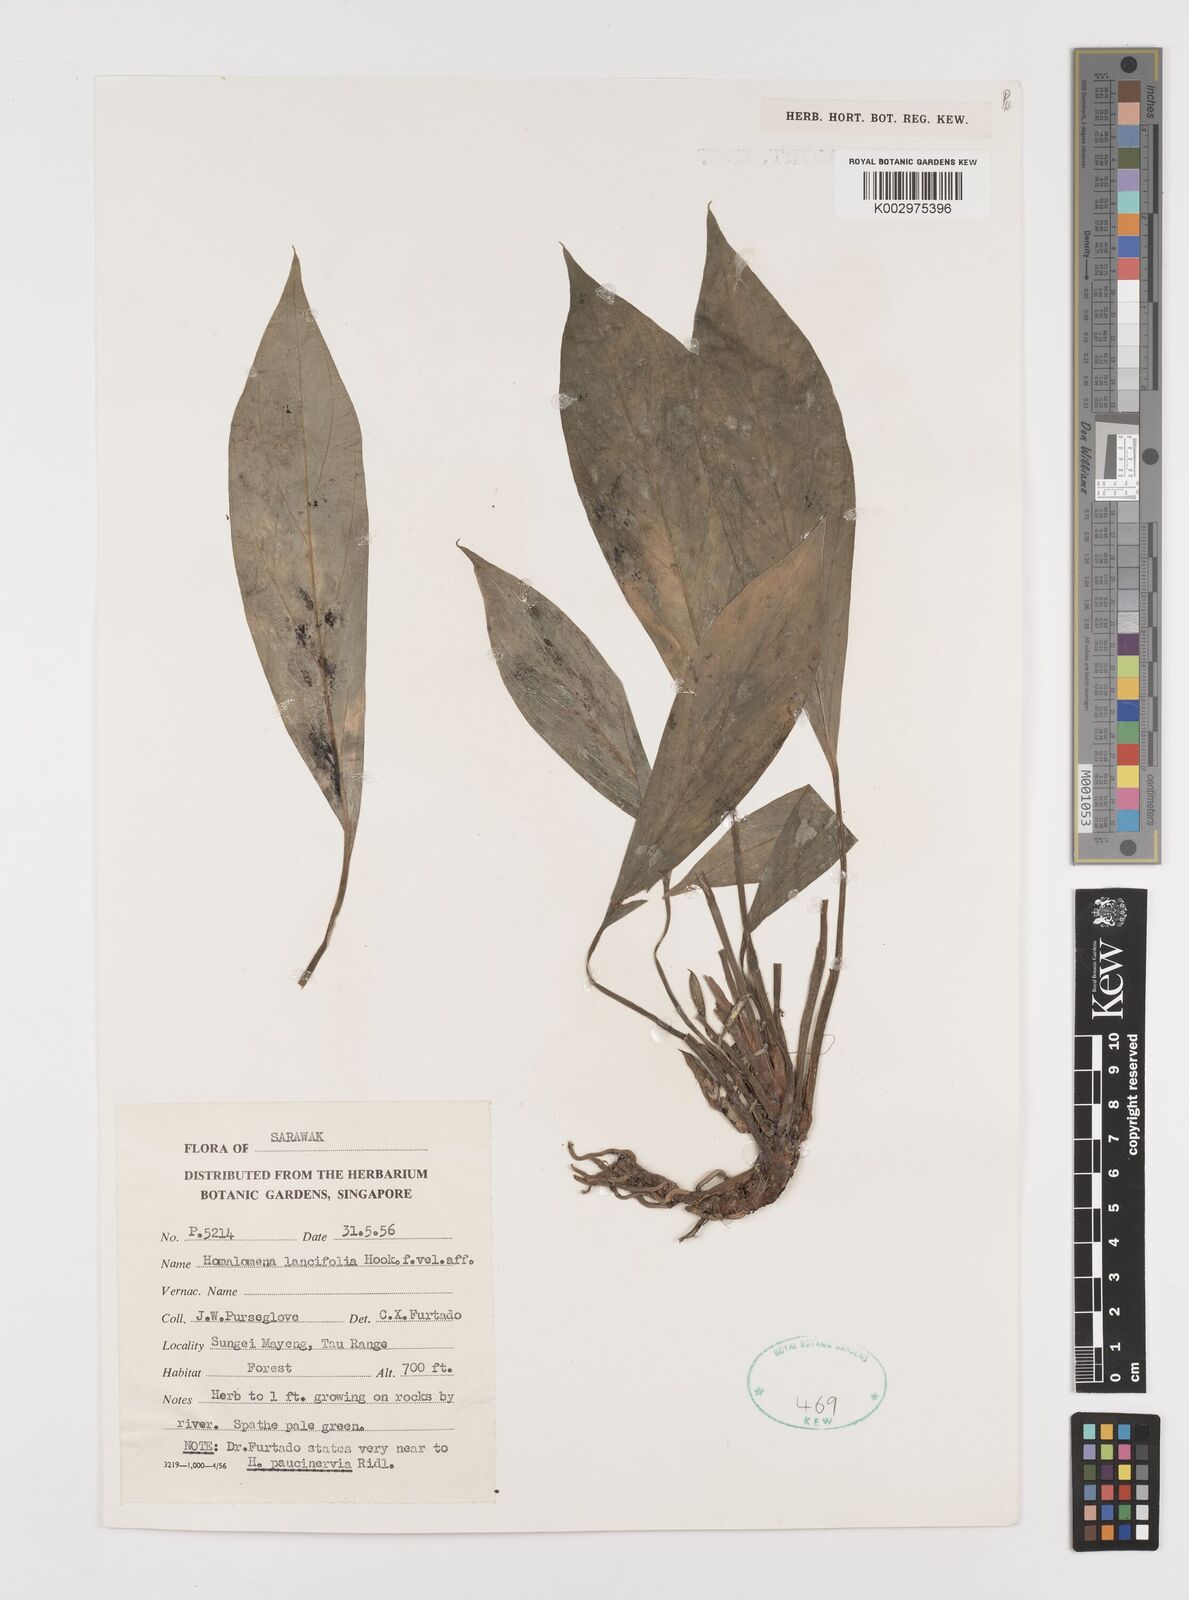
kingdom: Plantae
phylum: Tracheophyta
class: Liliopsida
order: Alismatales
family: Araceae
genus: Homalomena
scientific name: Homalomena lancifolia
